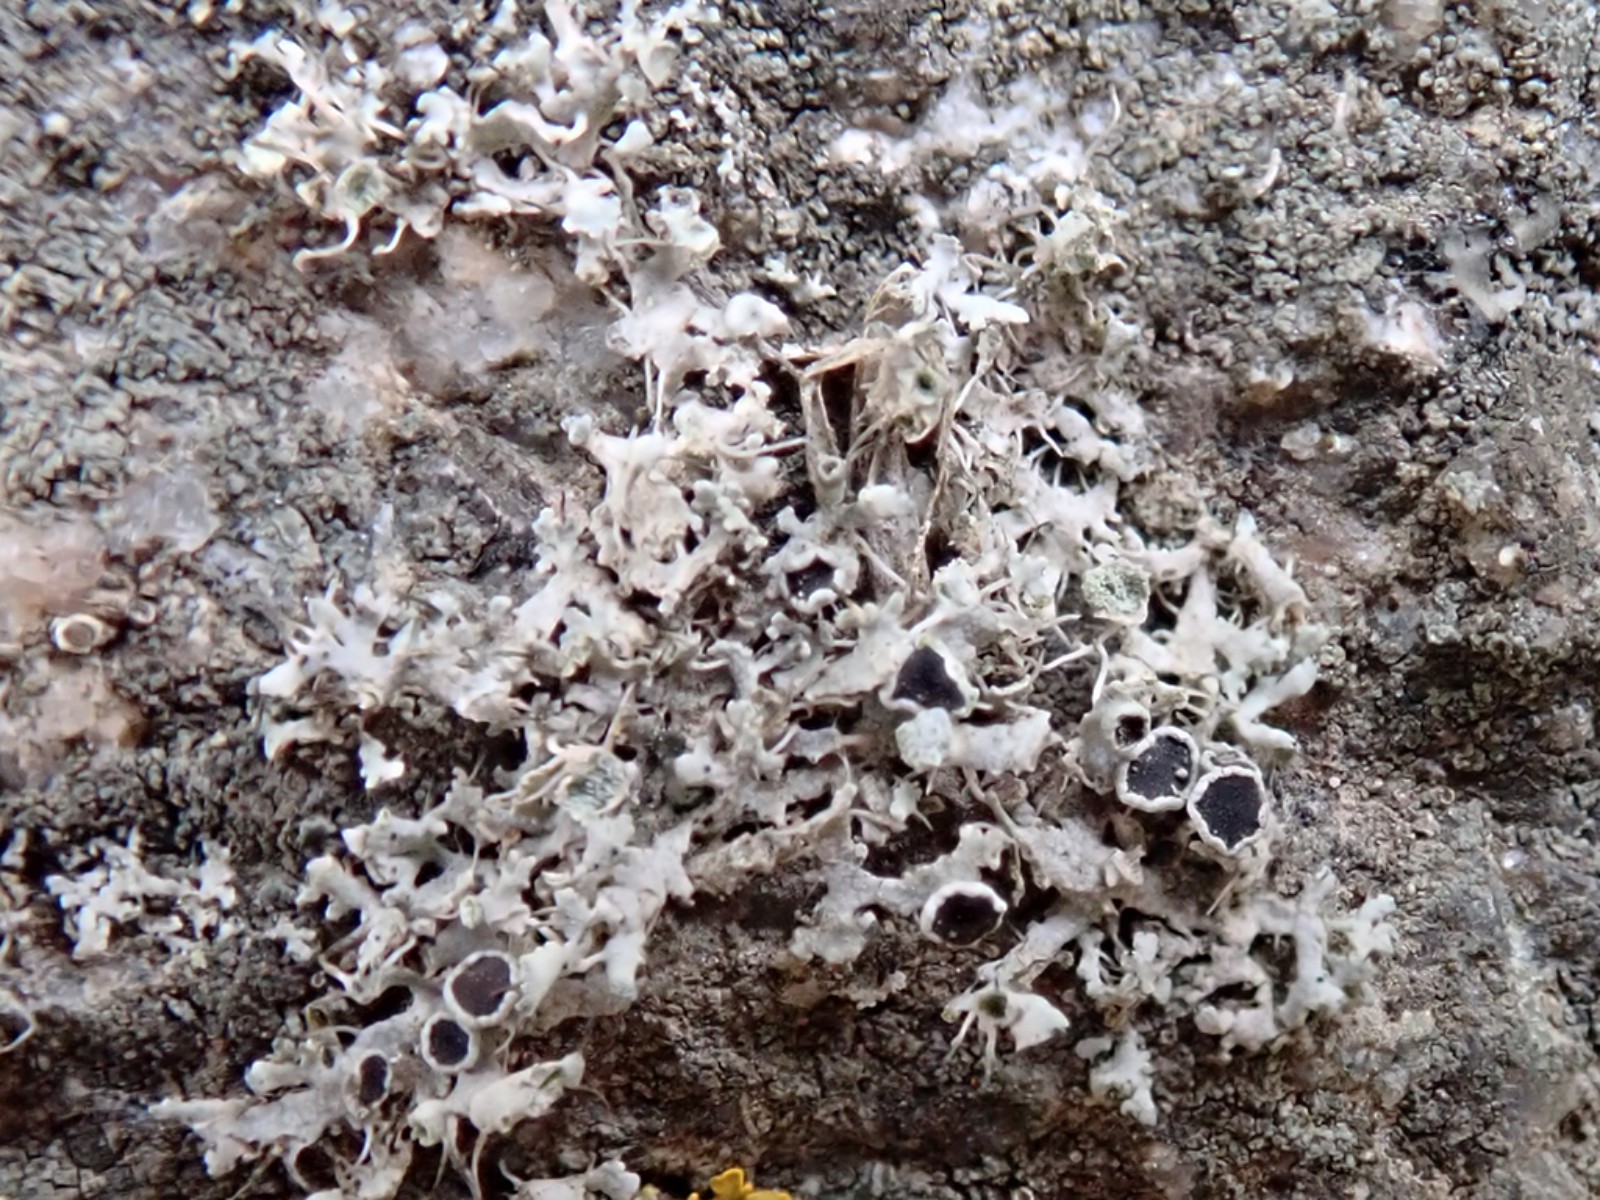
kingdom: Fungi
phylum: Ascomycota
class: Lecanoromycetes
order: Caliciales
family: Physciaceae
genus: Physcia
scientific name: Physcia adscendens
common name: hætte-rosetlav
